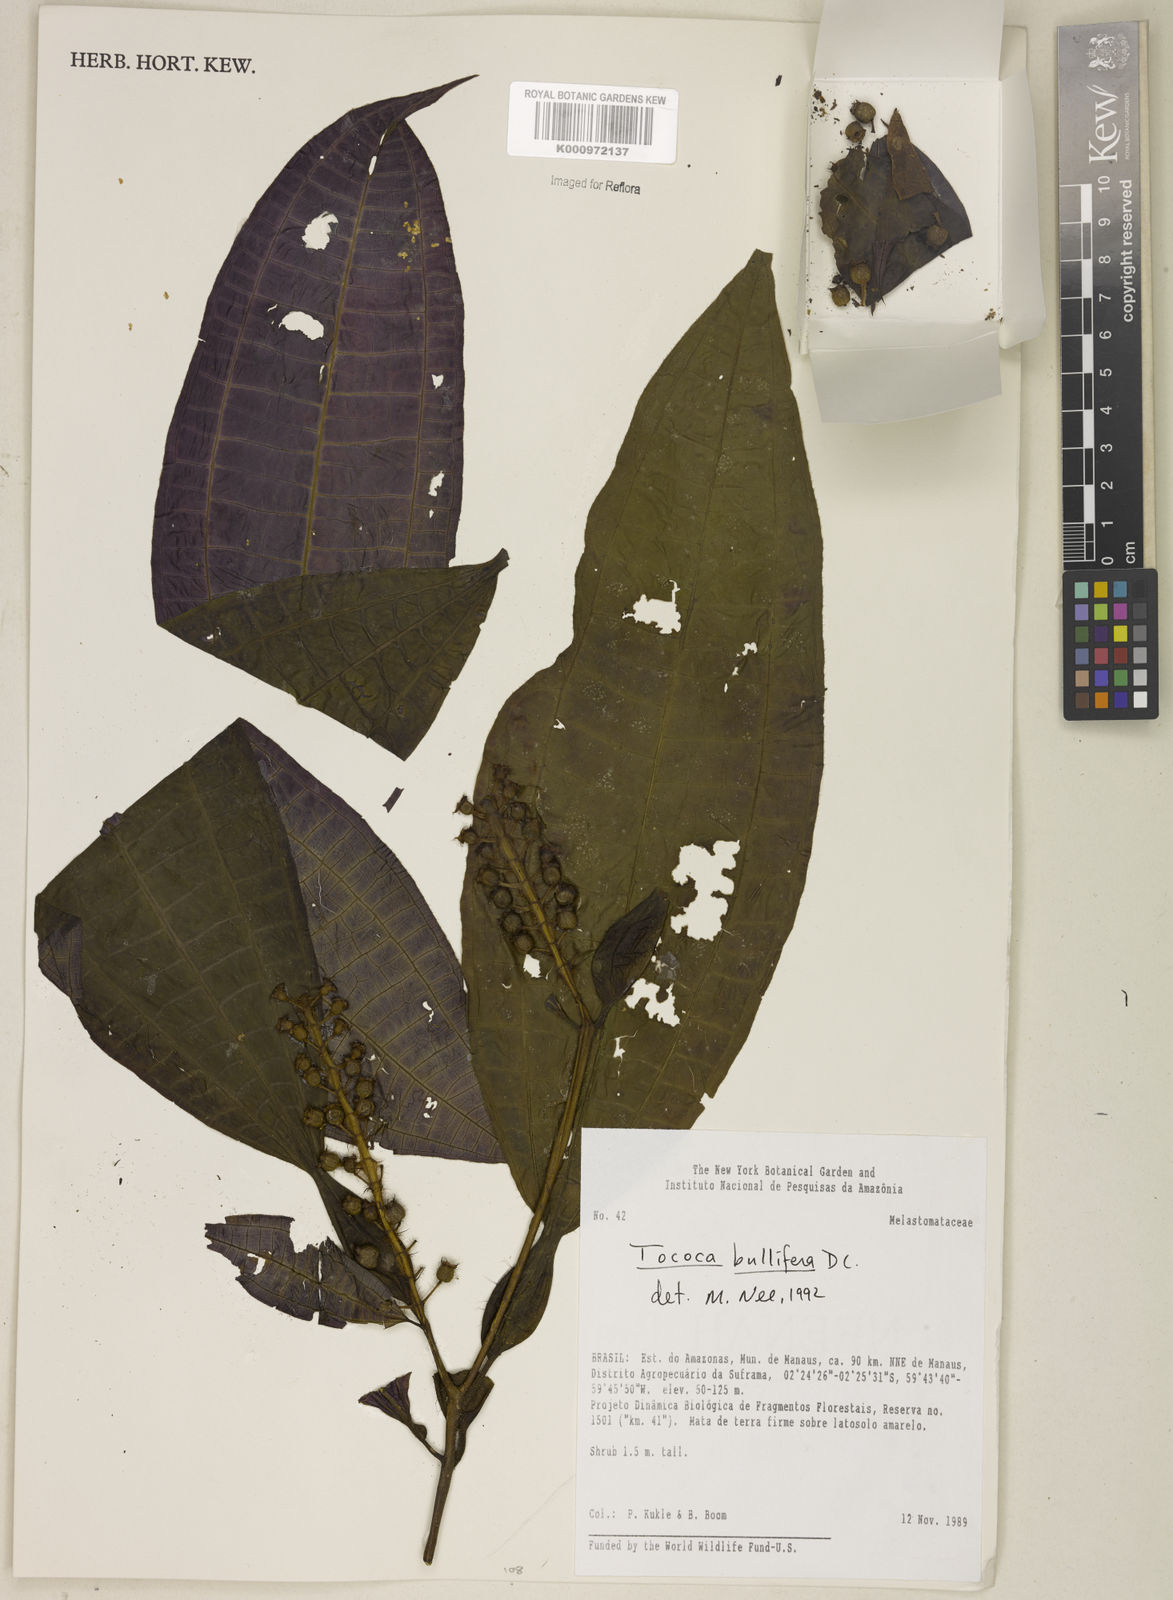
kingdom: Plantae
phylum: Tracheophyta
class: Magnoliopsida
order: Myrtales
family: Melastomataceae
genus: Miconia
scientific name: Miconia bullifera
